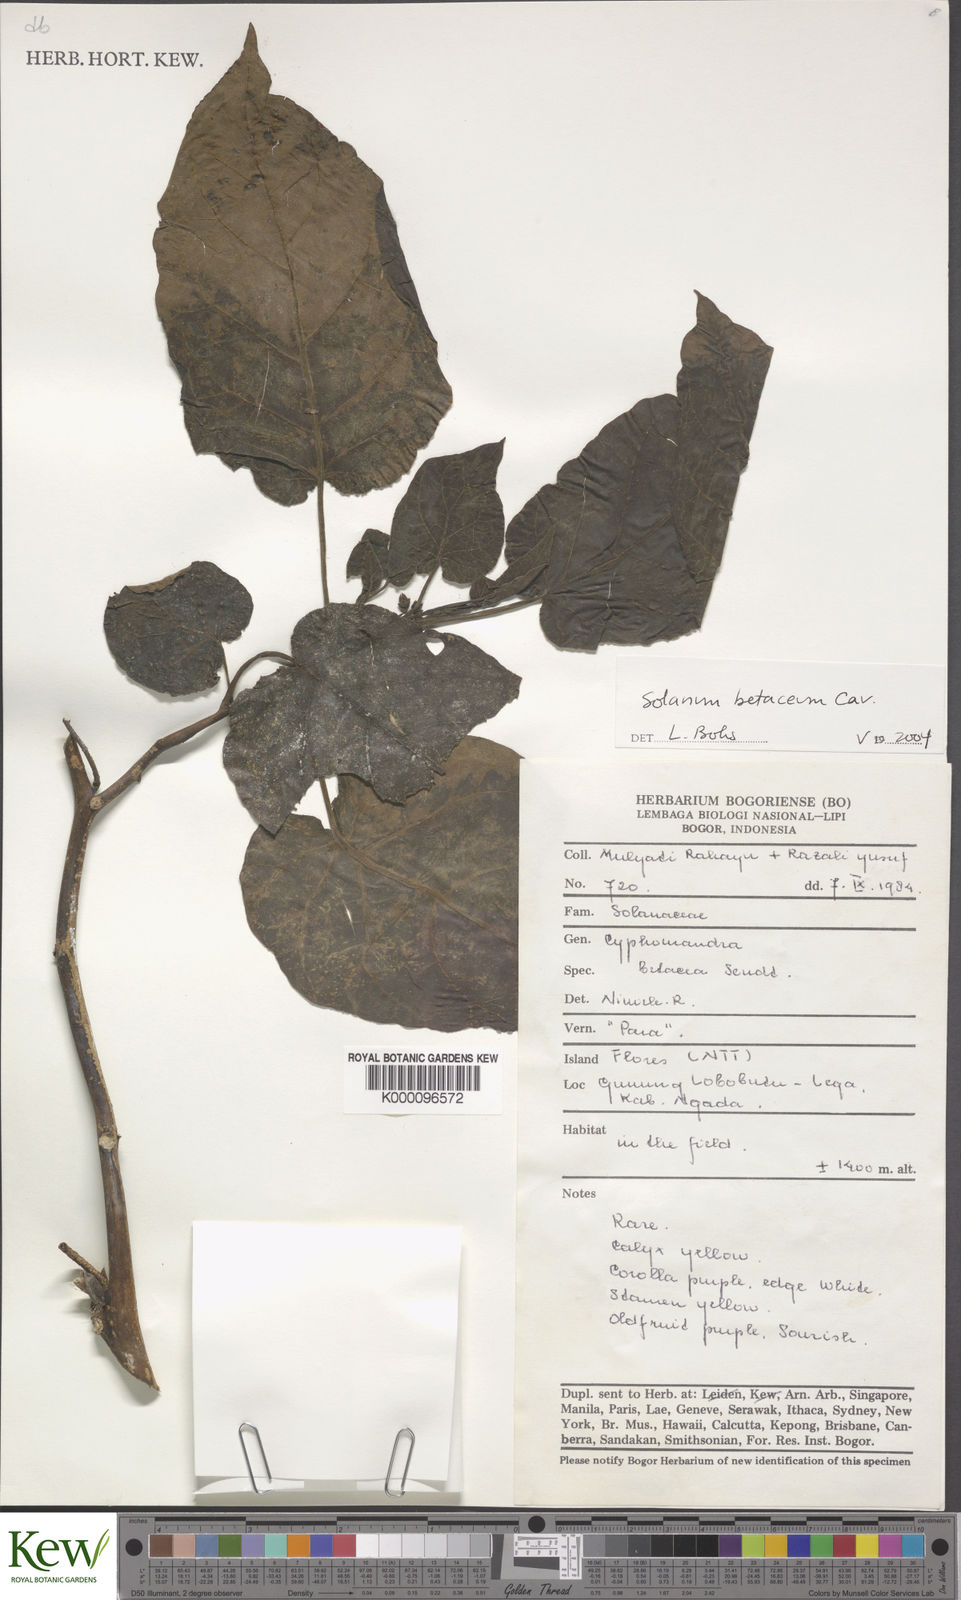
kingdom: Plantae
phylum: Tracheophyta
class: Magnoliopsida
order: Solanales
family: Solanaceae
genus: Solanum
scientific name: Solanum
